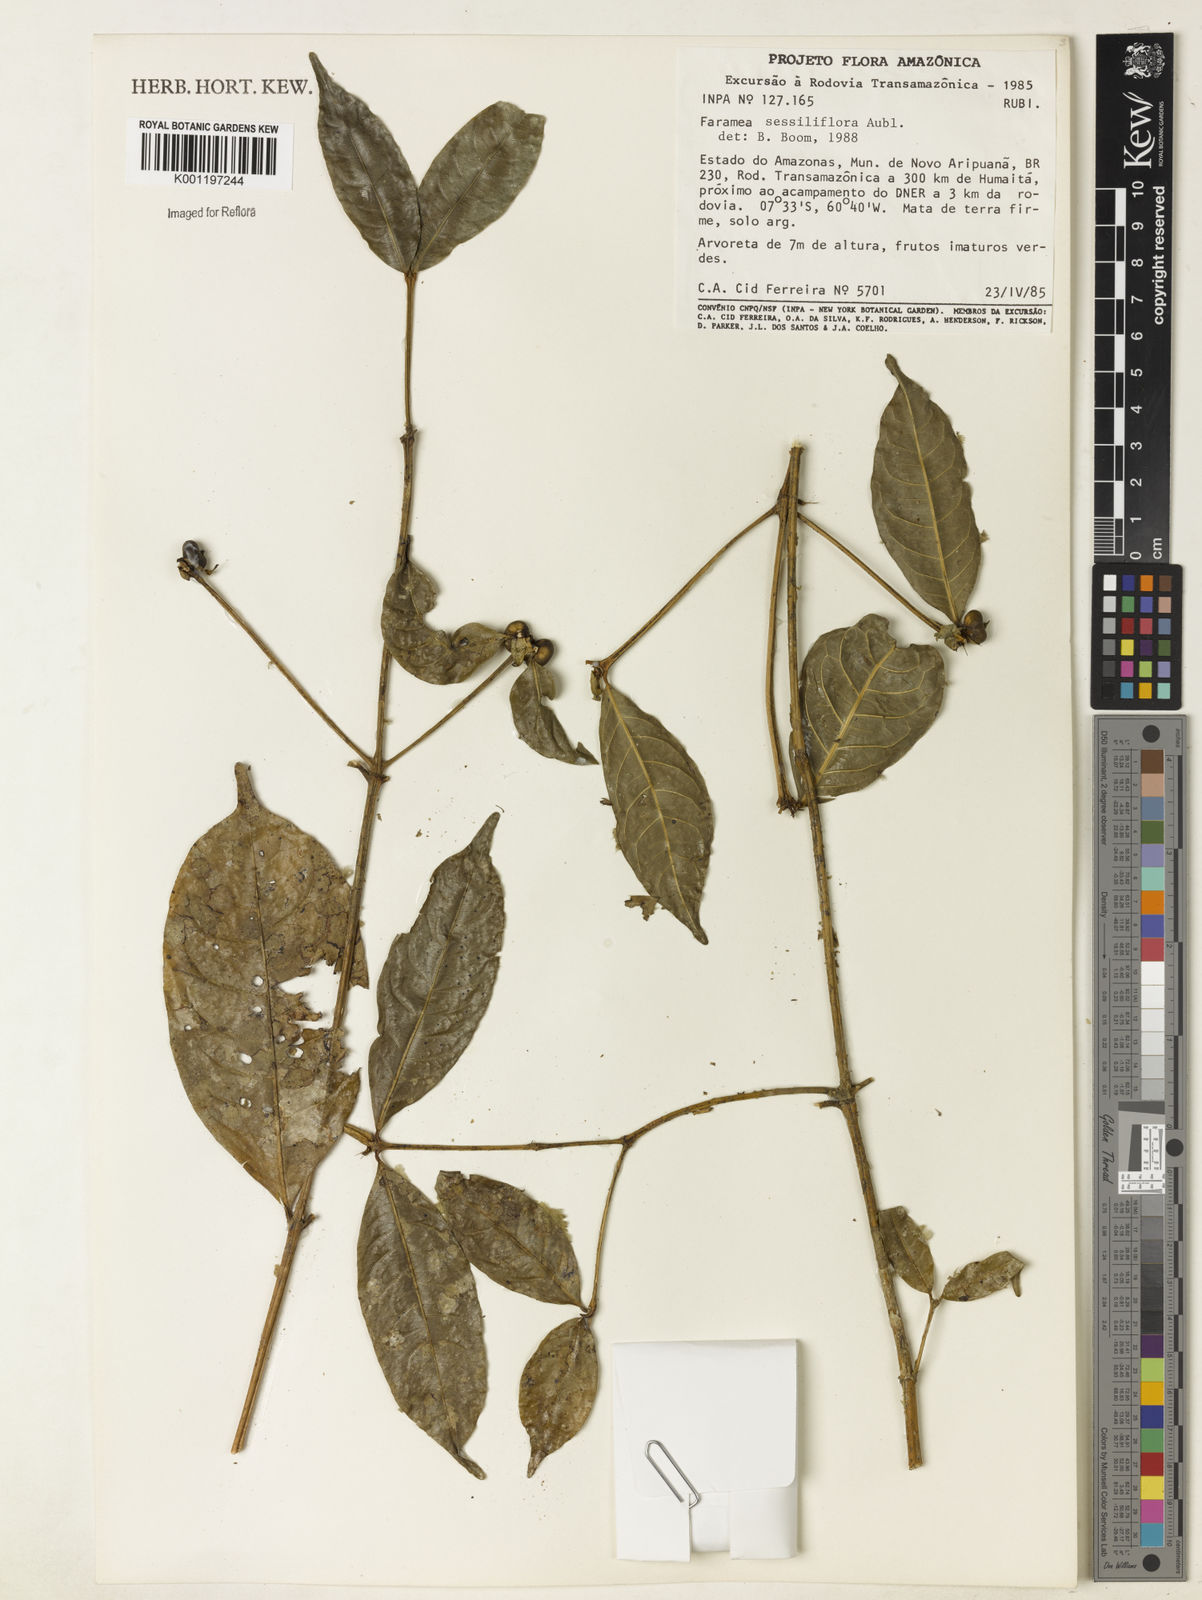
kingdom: Plantae
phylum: Tracheophyta
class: Magnoliopsida
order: Gentianales
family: Rubiaceae
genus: Faramea
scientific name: Faramea sessilifolia
